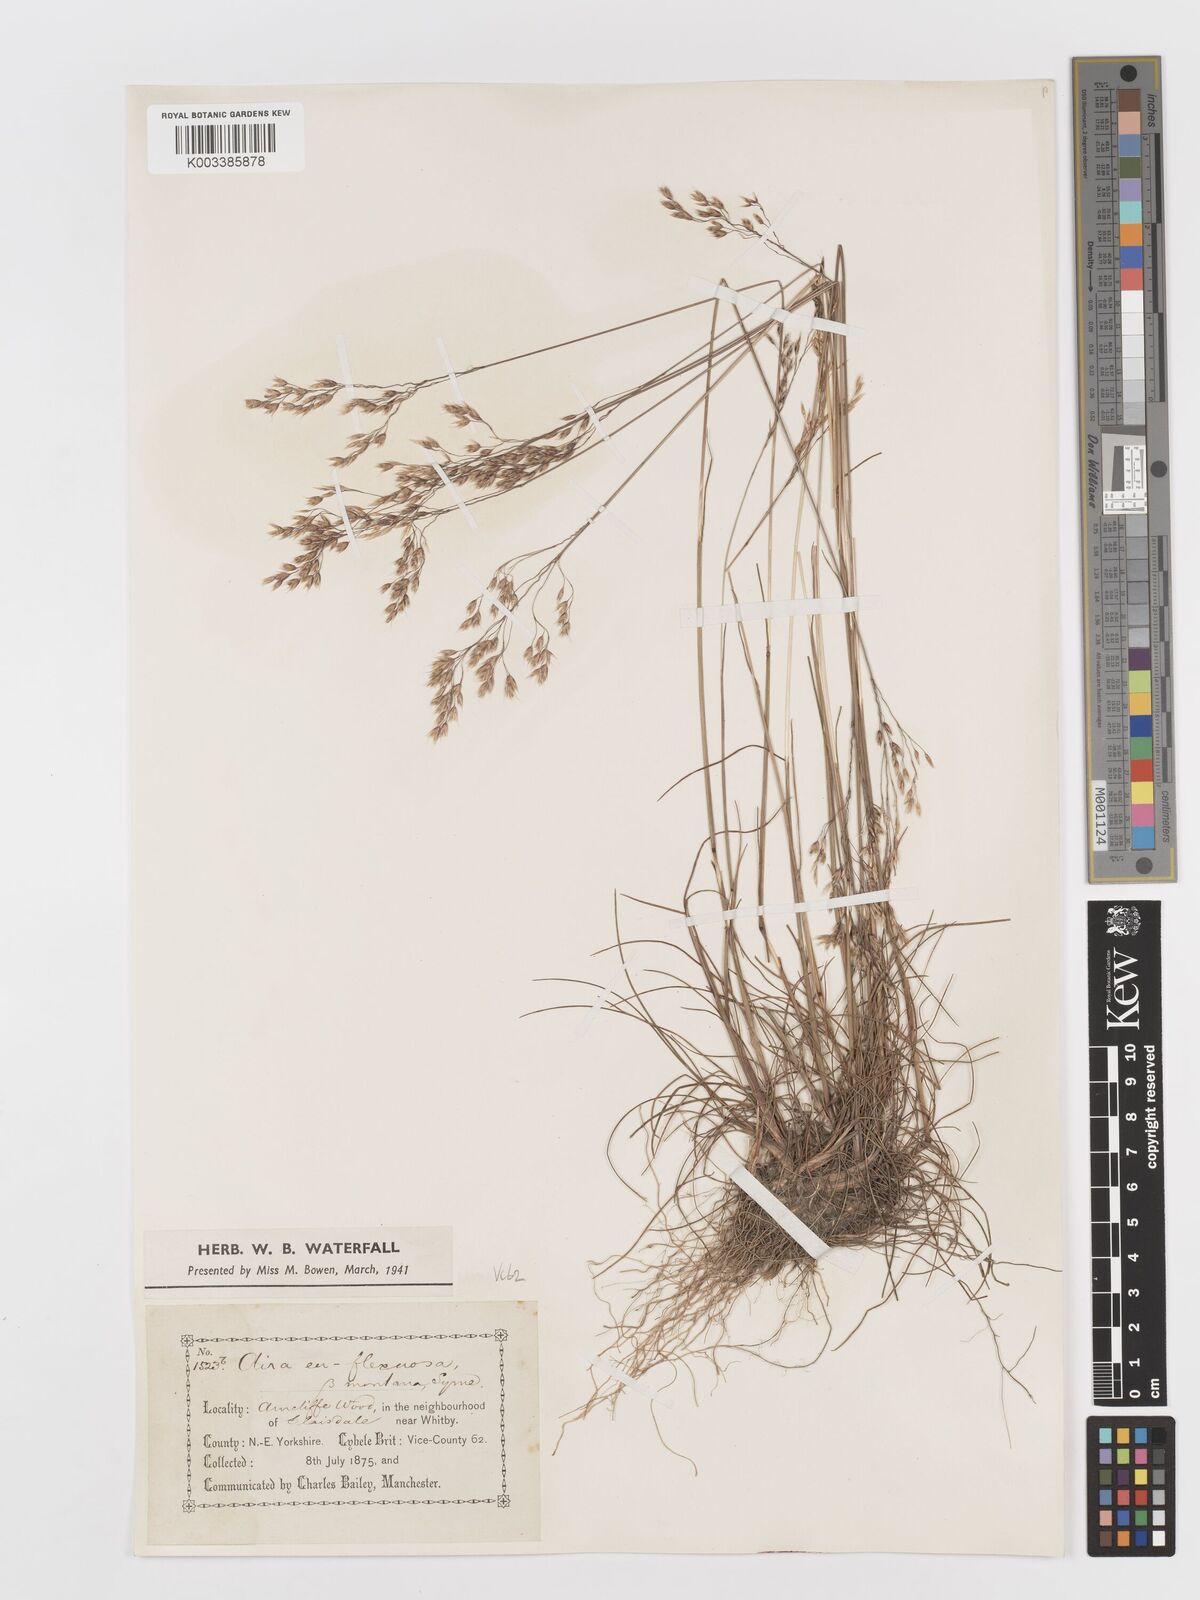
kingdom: Plantae
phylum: Tracheophyta
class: Liliopsida
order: Poales
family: Poaceae
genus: Avenella
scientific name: Avenella flexuosa
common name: Wavy hairgrass
